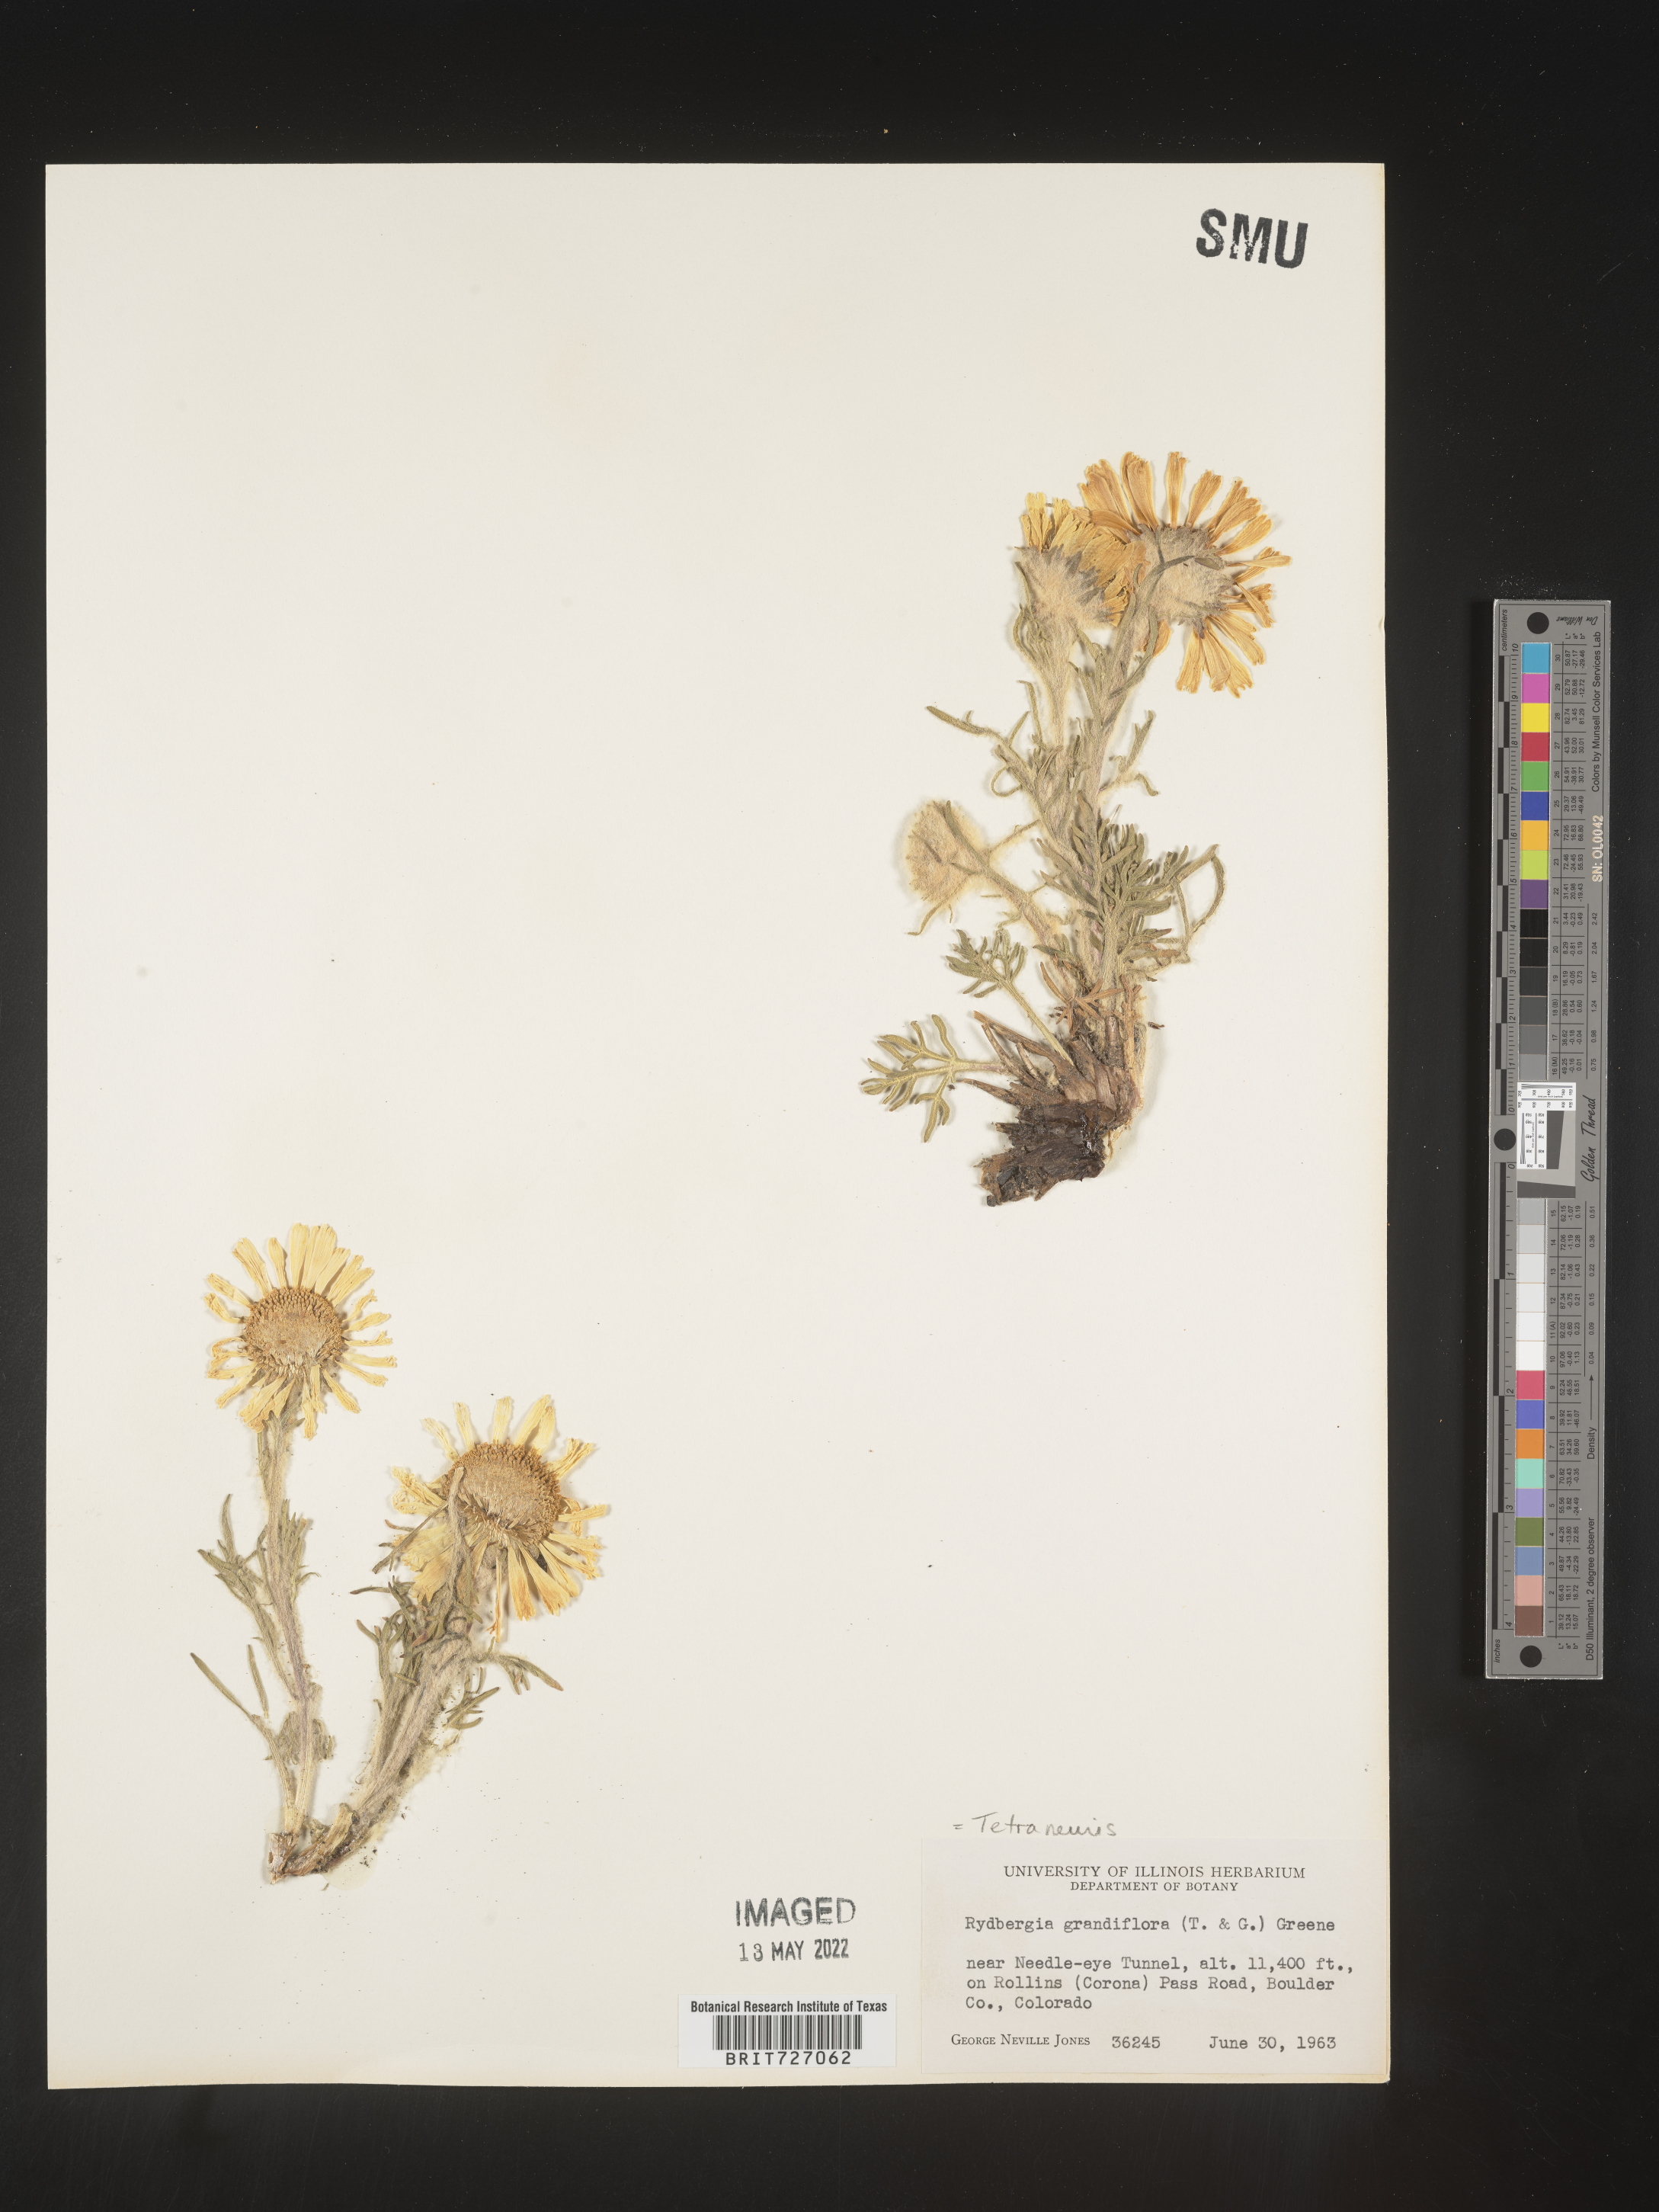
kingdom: Plantae
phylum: Tracheophyta
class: Magnoliopsida
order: Asterales
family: Asteraceae
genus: Hymenoxys
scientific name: Hymenoxys grandiflora
